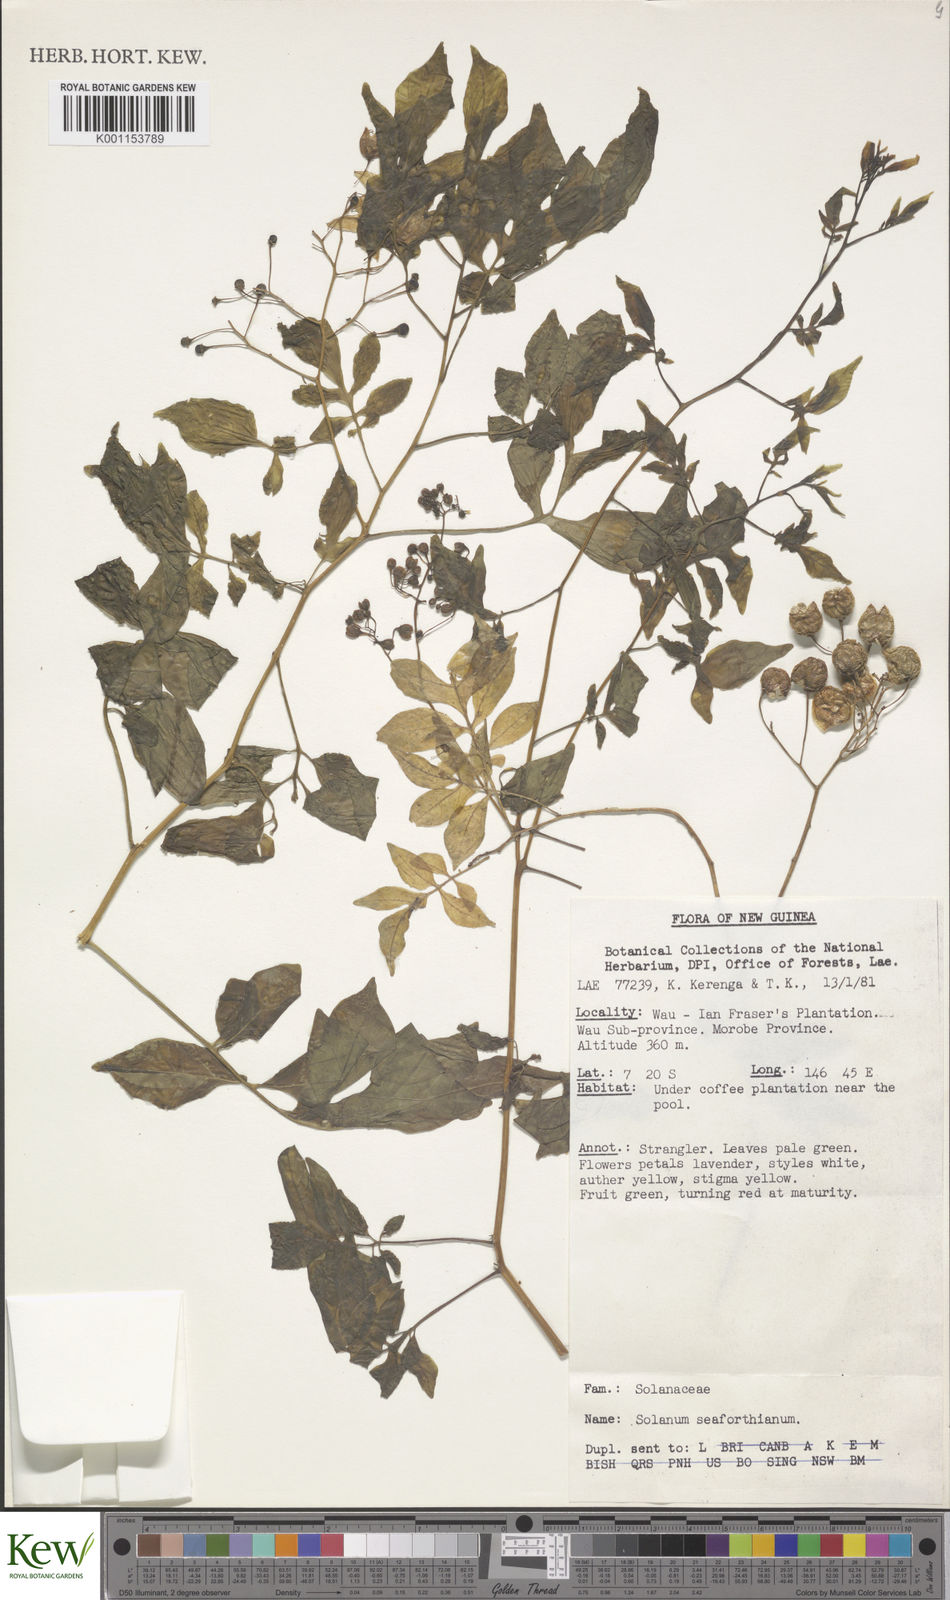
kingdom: Plantae
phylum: Tracheophyta
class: Magnoliopsida
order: Solanales
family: Solanaceae
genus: Solanum
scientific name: Solanum seaforthianum
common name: Brazilian nightshade
